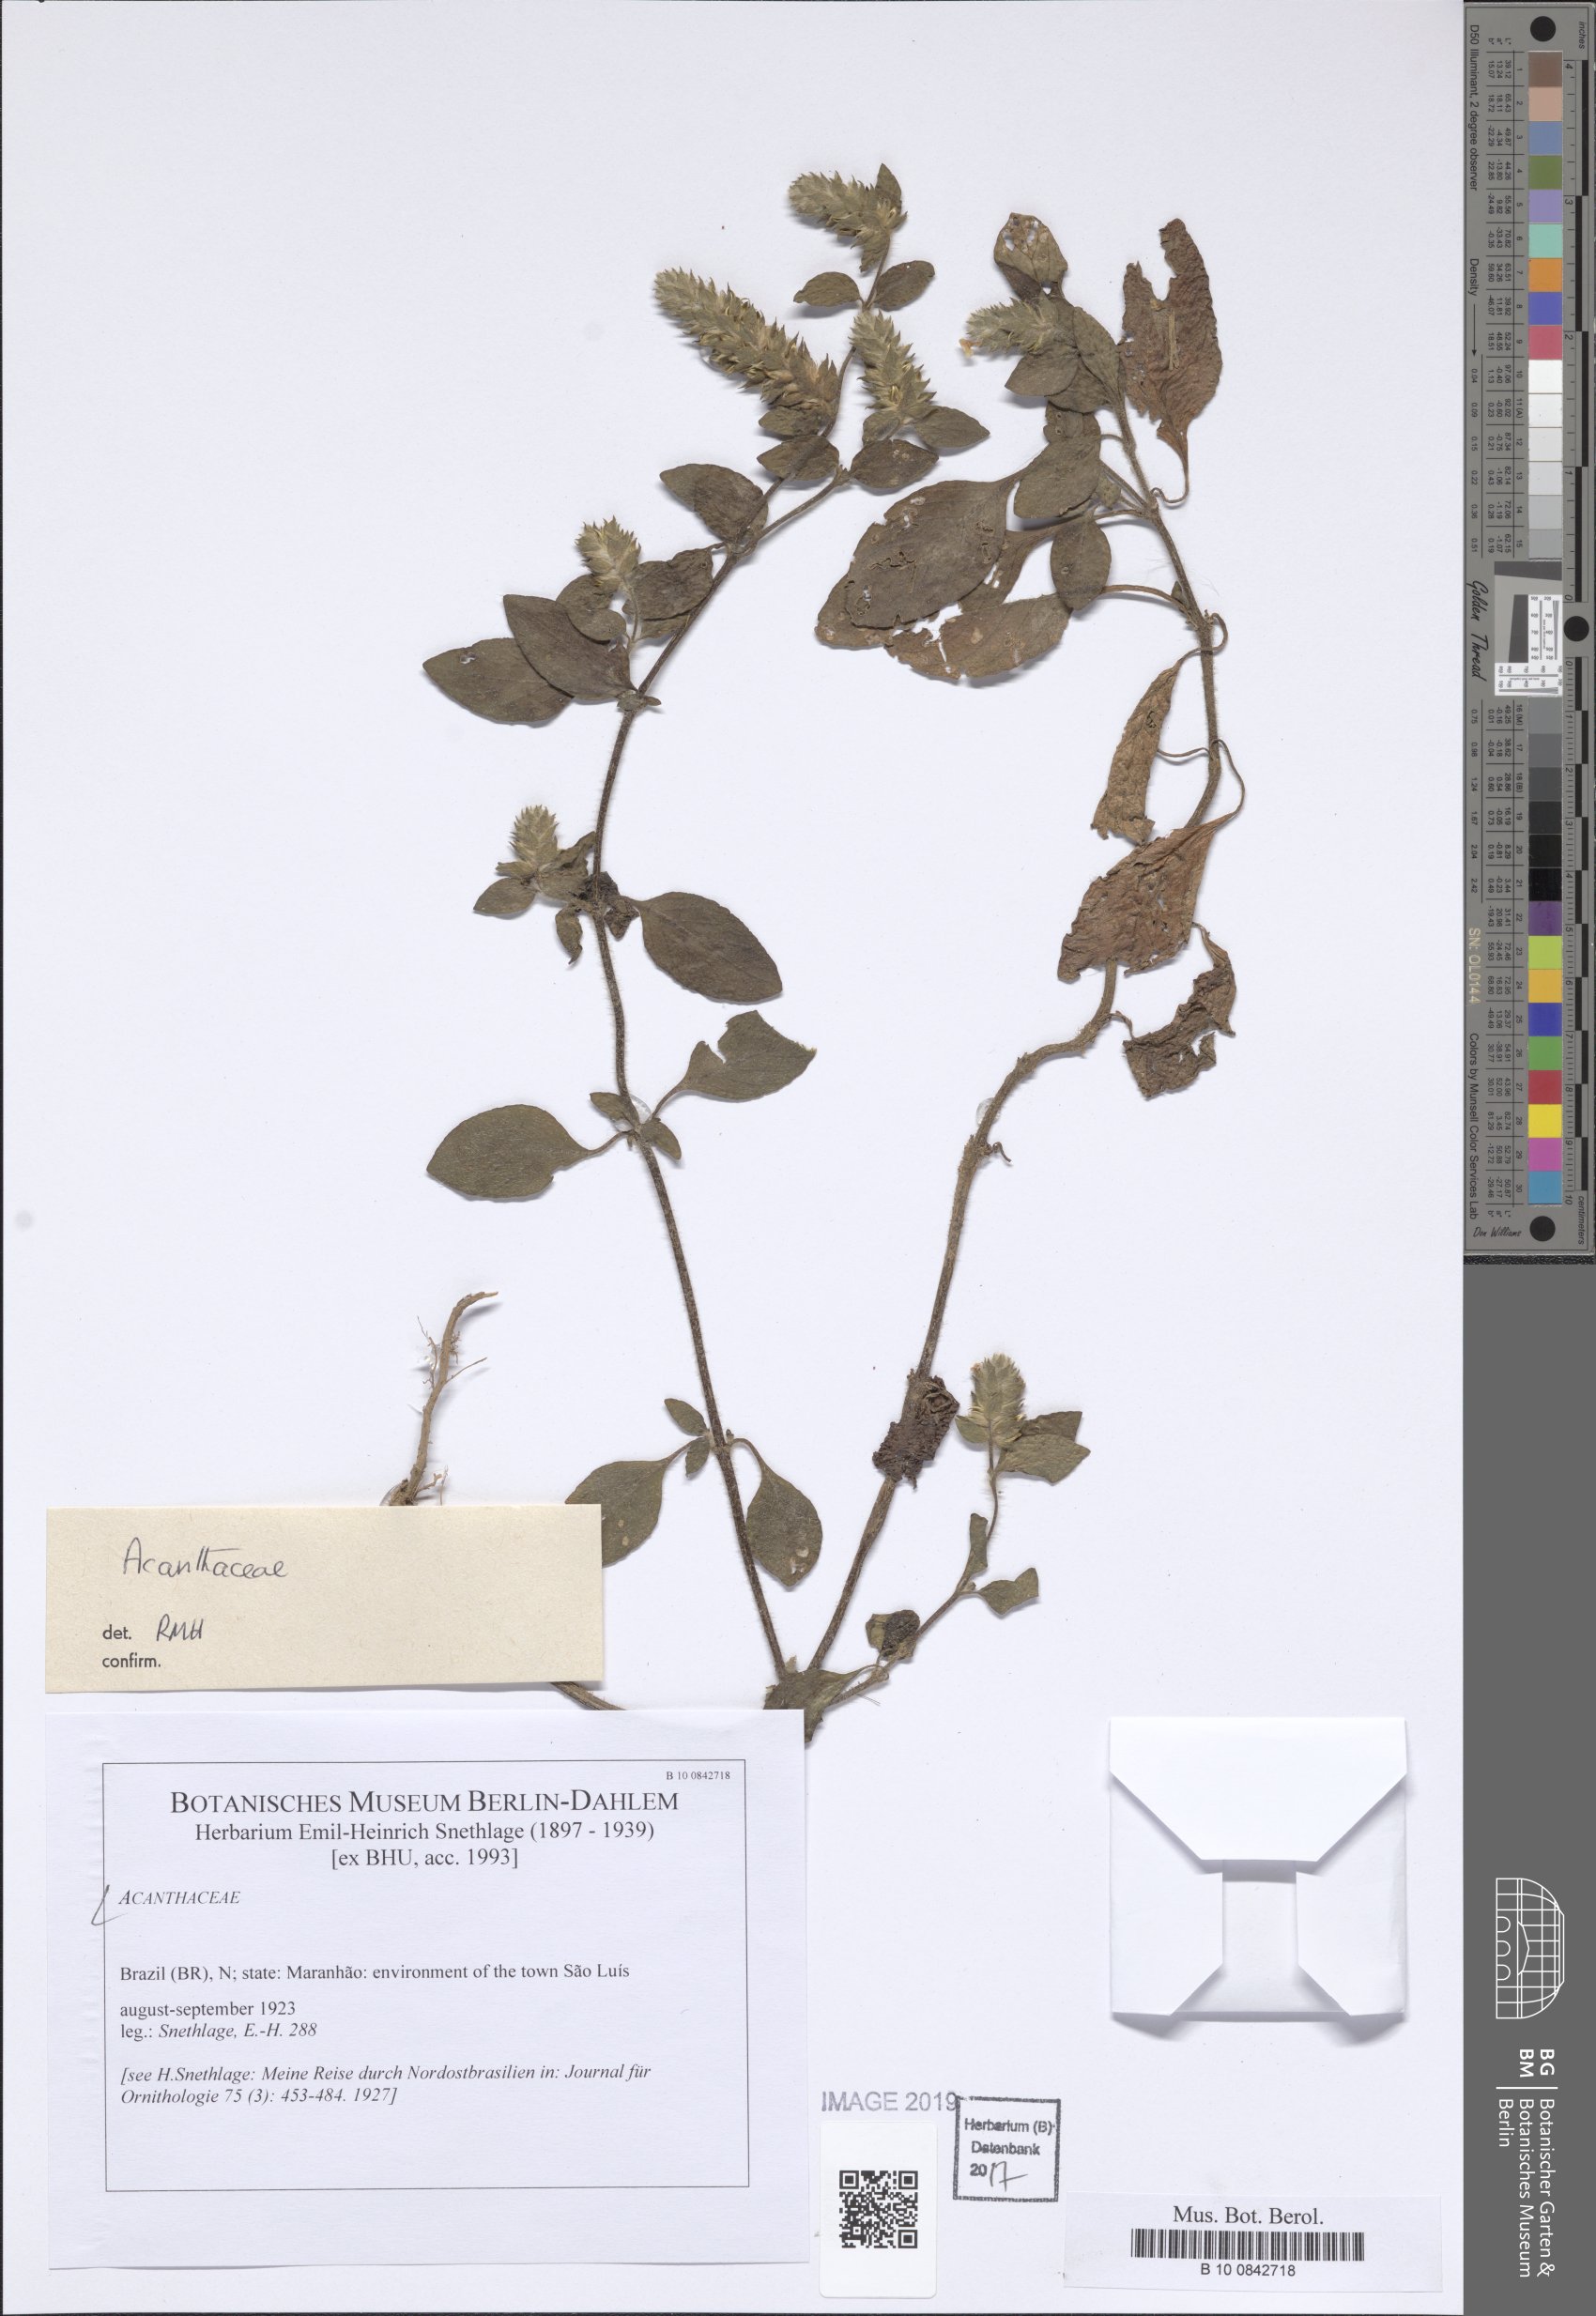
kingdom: Plantae
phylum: Tracheophyta
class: Magnoliopsida
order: Lamiales
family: Acanthaceae
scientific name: Acanthaceae
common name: Acanthaceae
